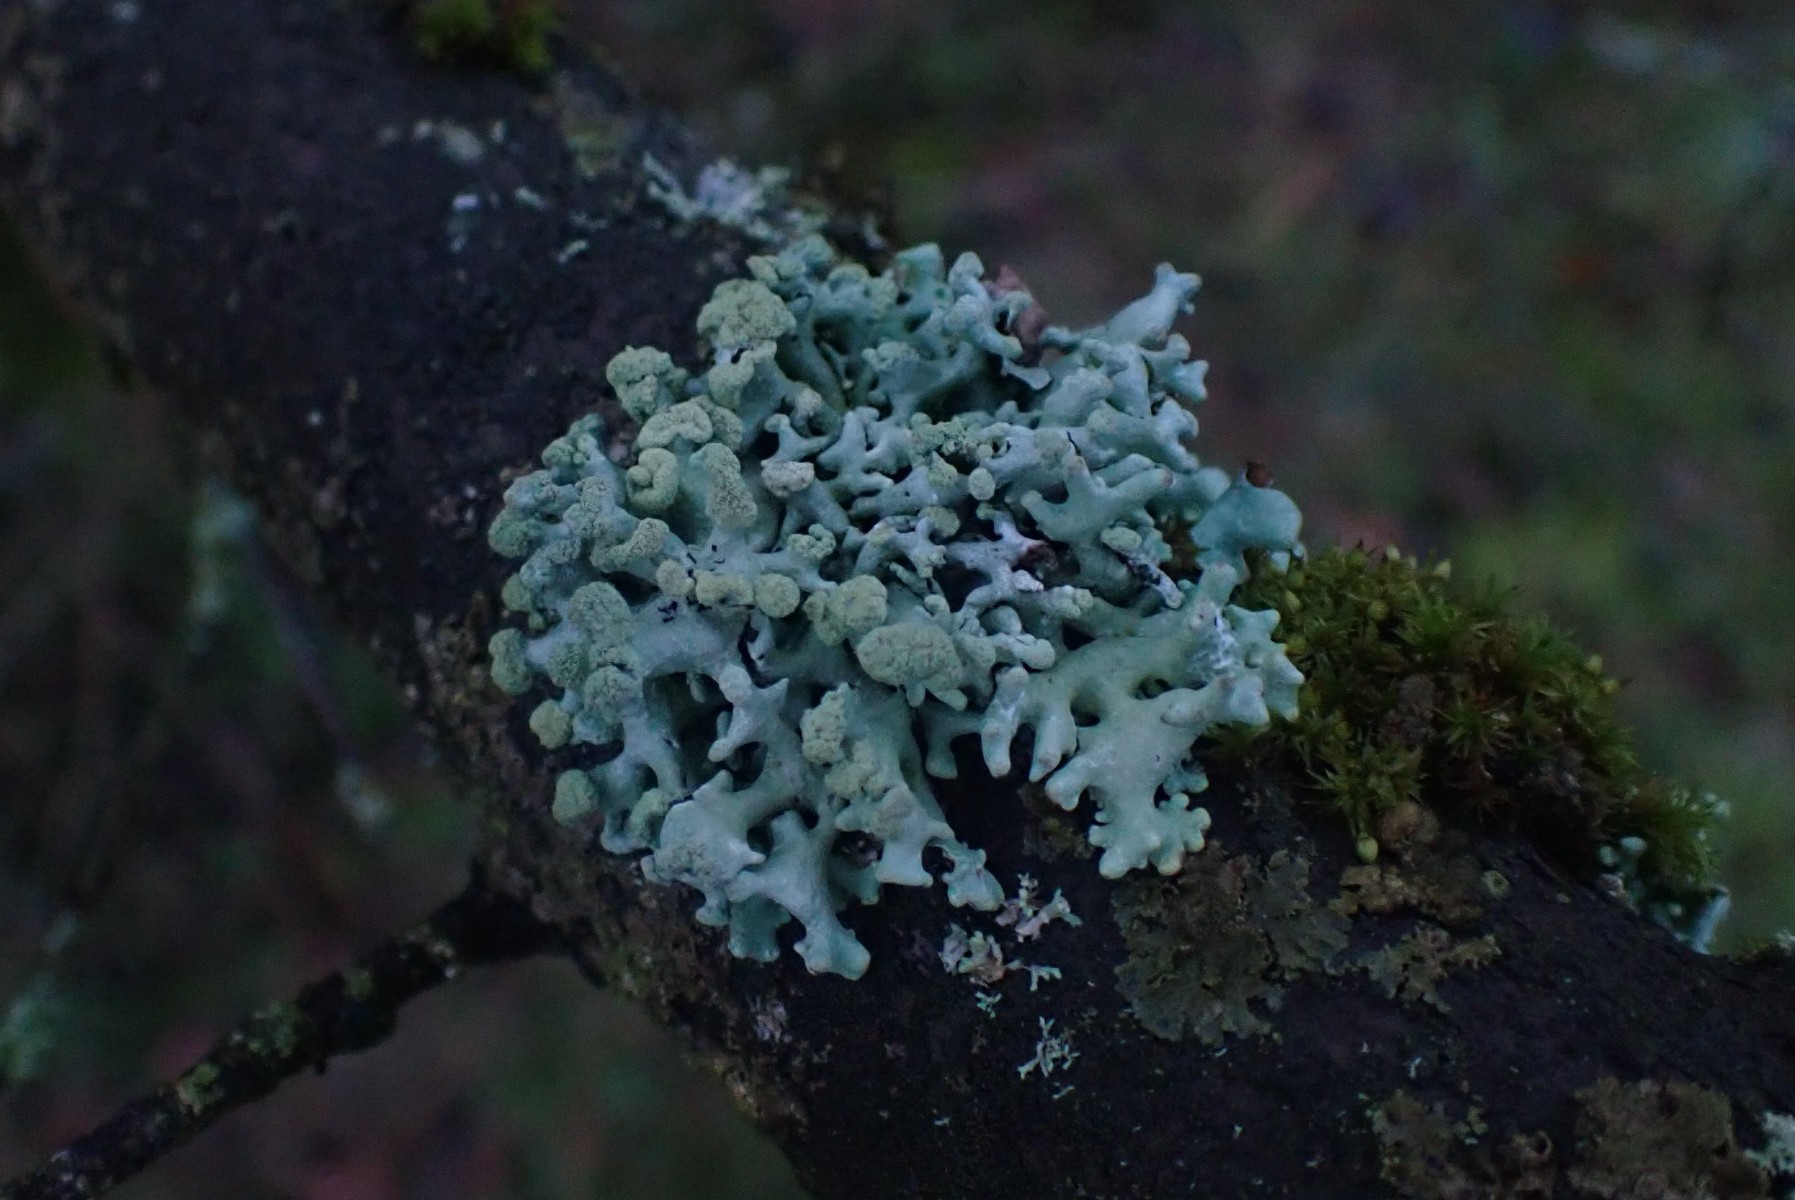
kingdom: Fungi
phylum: Ascomycota
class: Lecanoromycetes
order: Lecanorales
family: Parmeliaceae
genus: Hypogymnia
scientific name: Hypogymnia tubulosa
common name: finger-kvistlav
